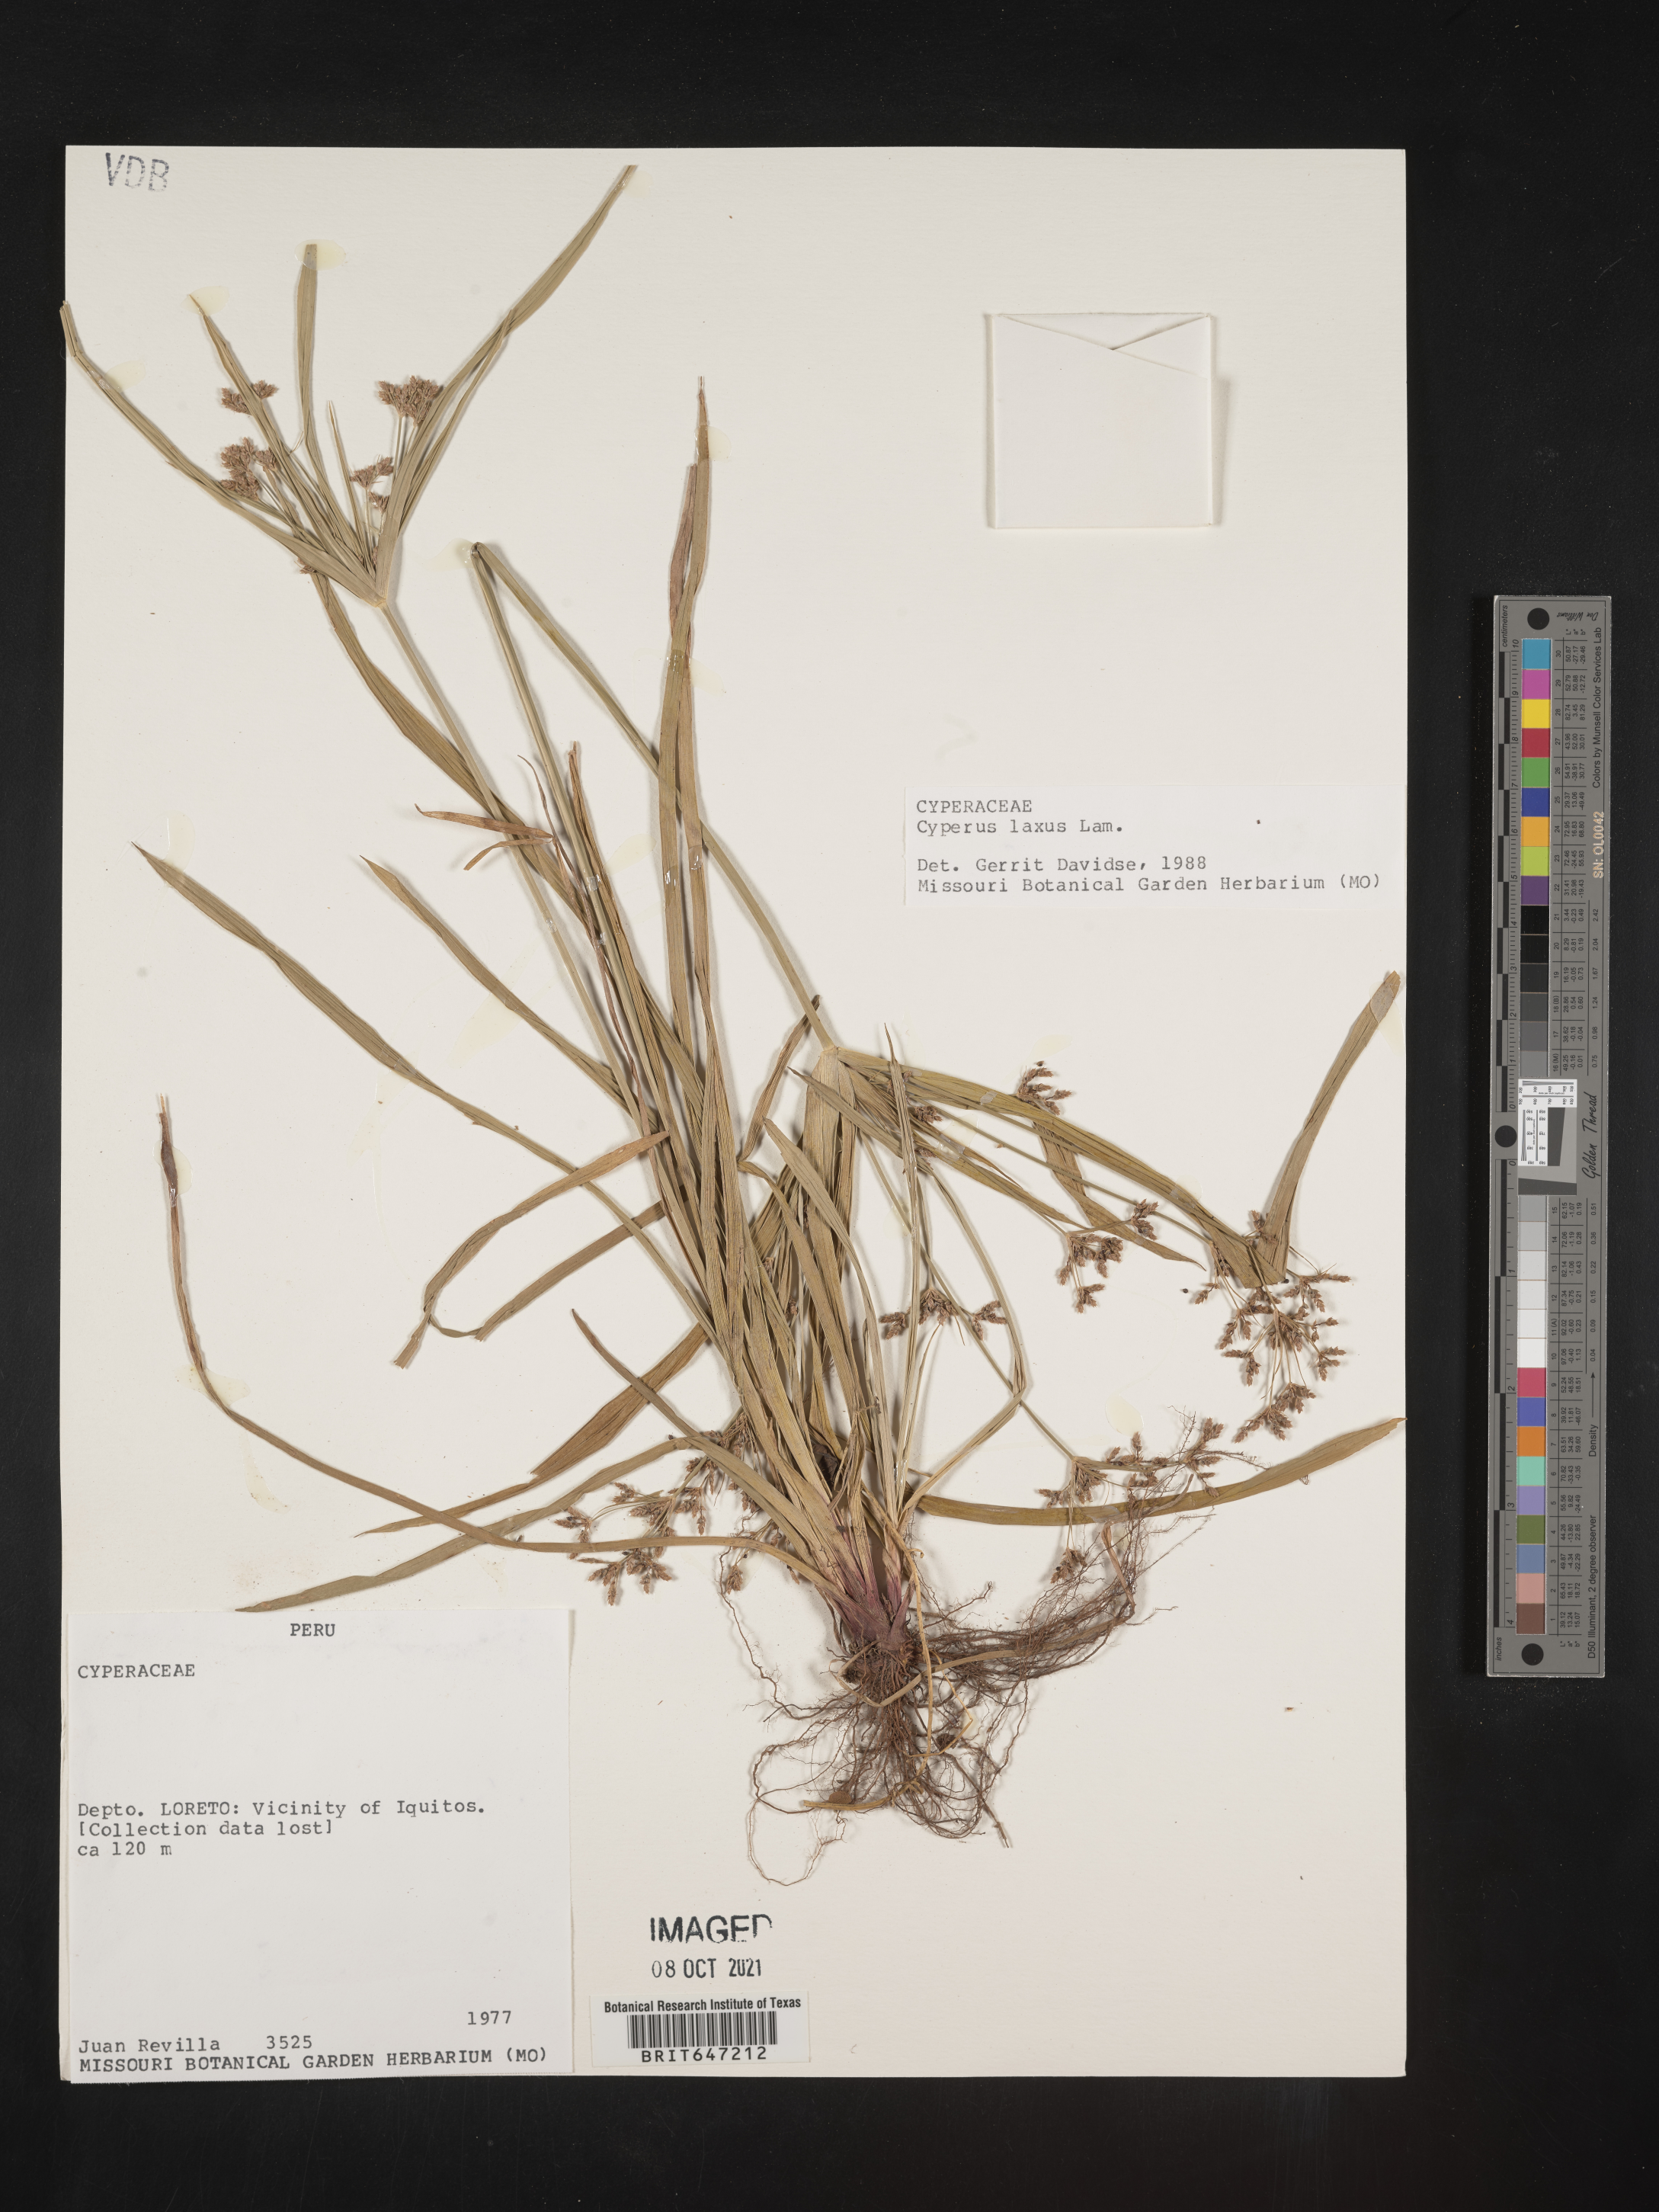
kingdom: Plantae
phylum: Tracheophyta
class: Liliopsida
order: Poales
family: Cyperaceae
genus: Cyperus
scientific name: Cyperus laxus
